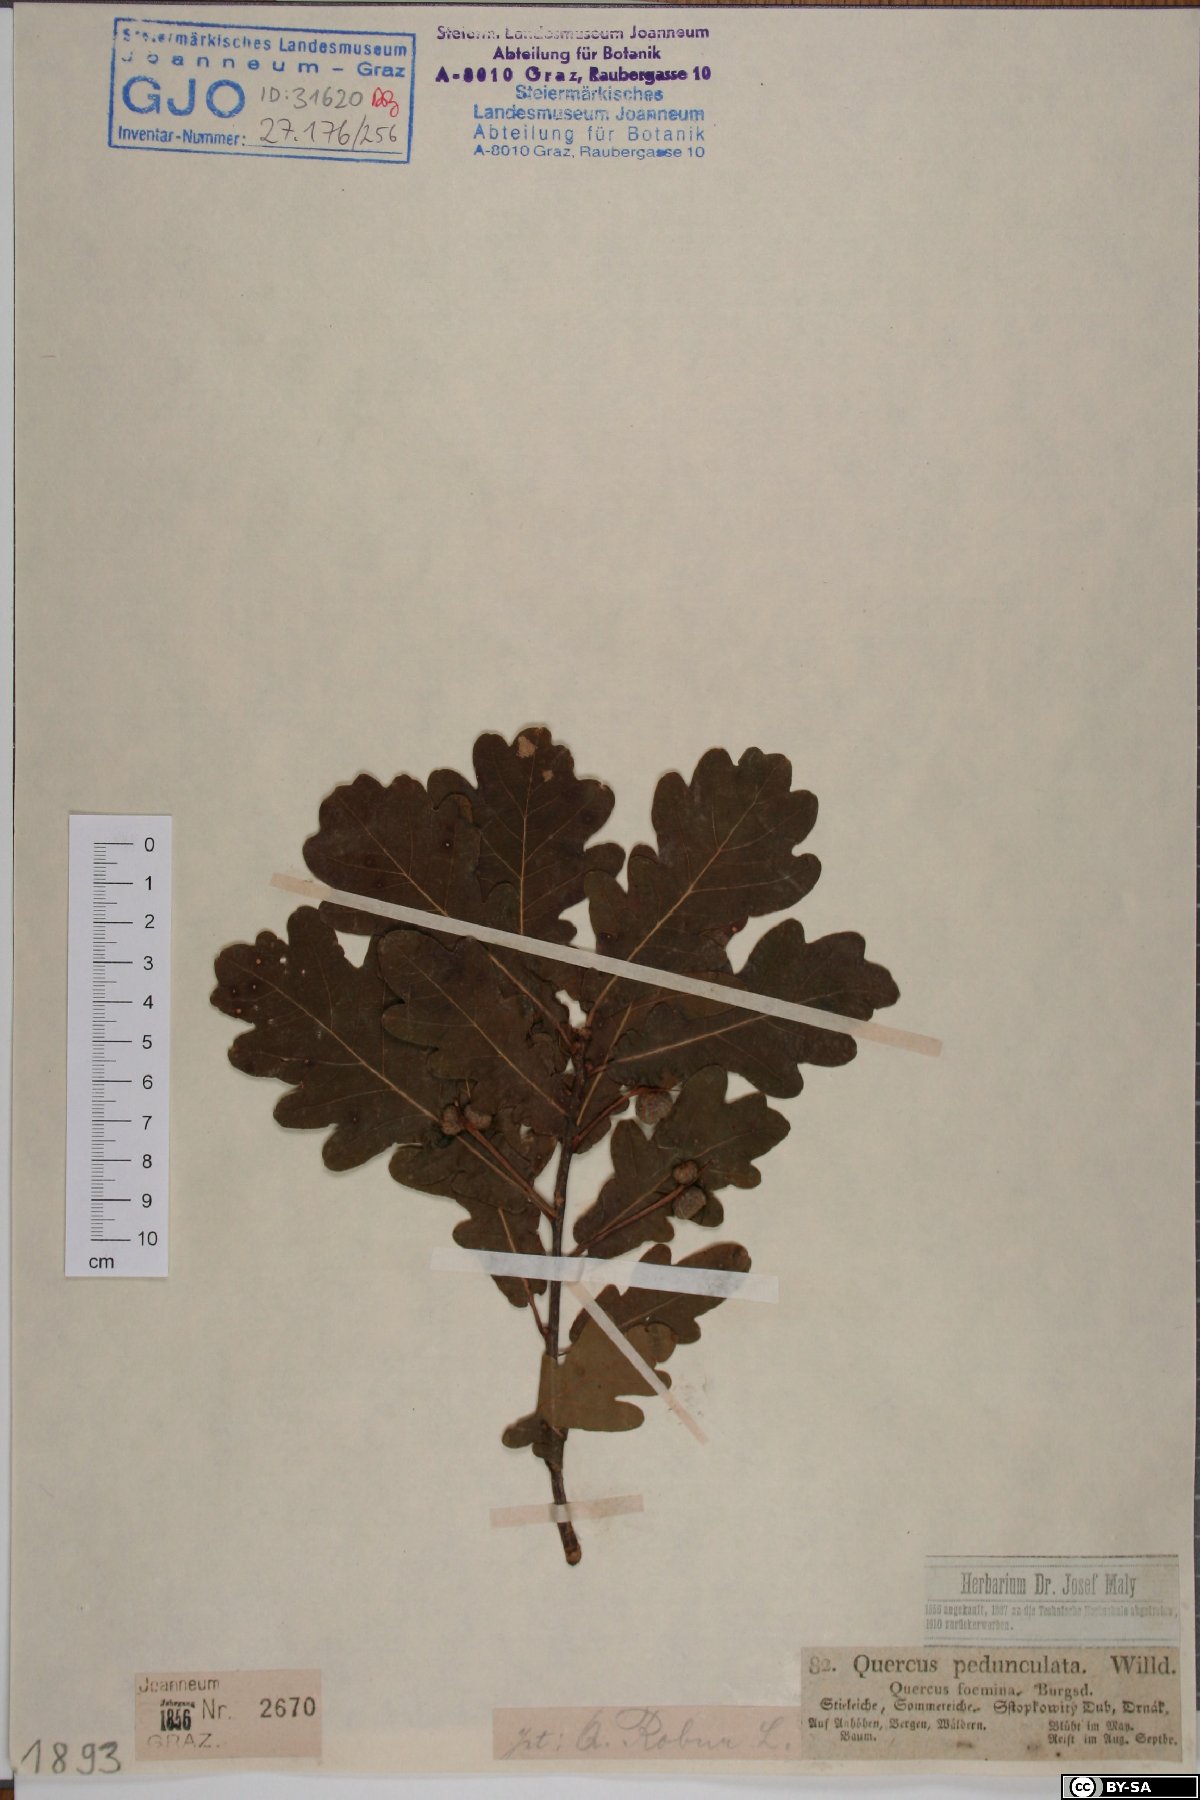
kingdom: Plantae
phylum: Tracheophyta
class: Magnoliopsida
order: Fagales
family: Fagaceae
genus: Quercus
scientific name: Quercus robur
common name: Pedunculate oak
